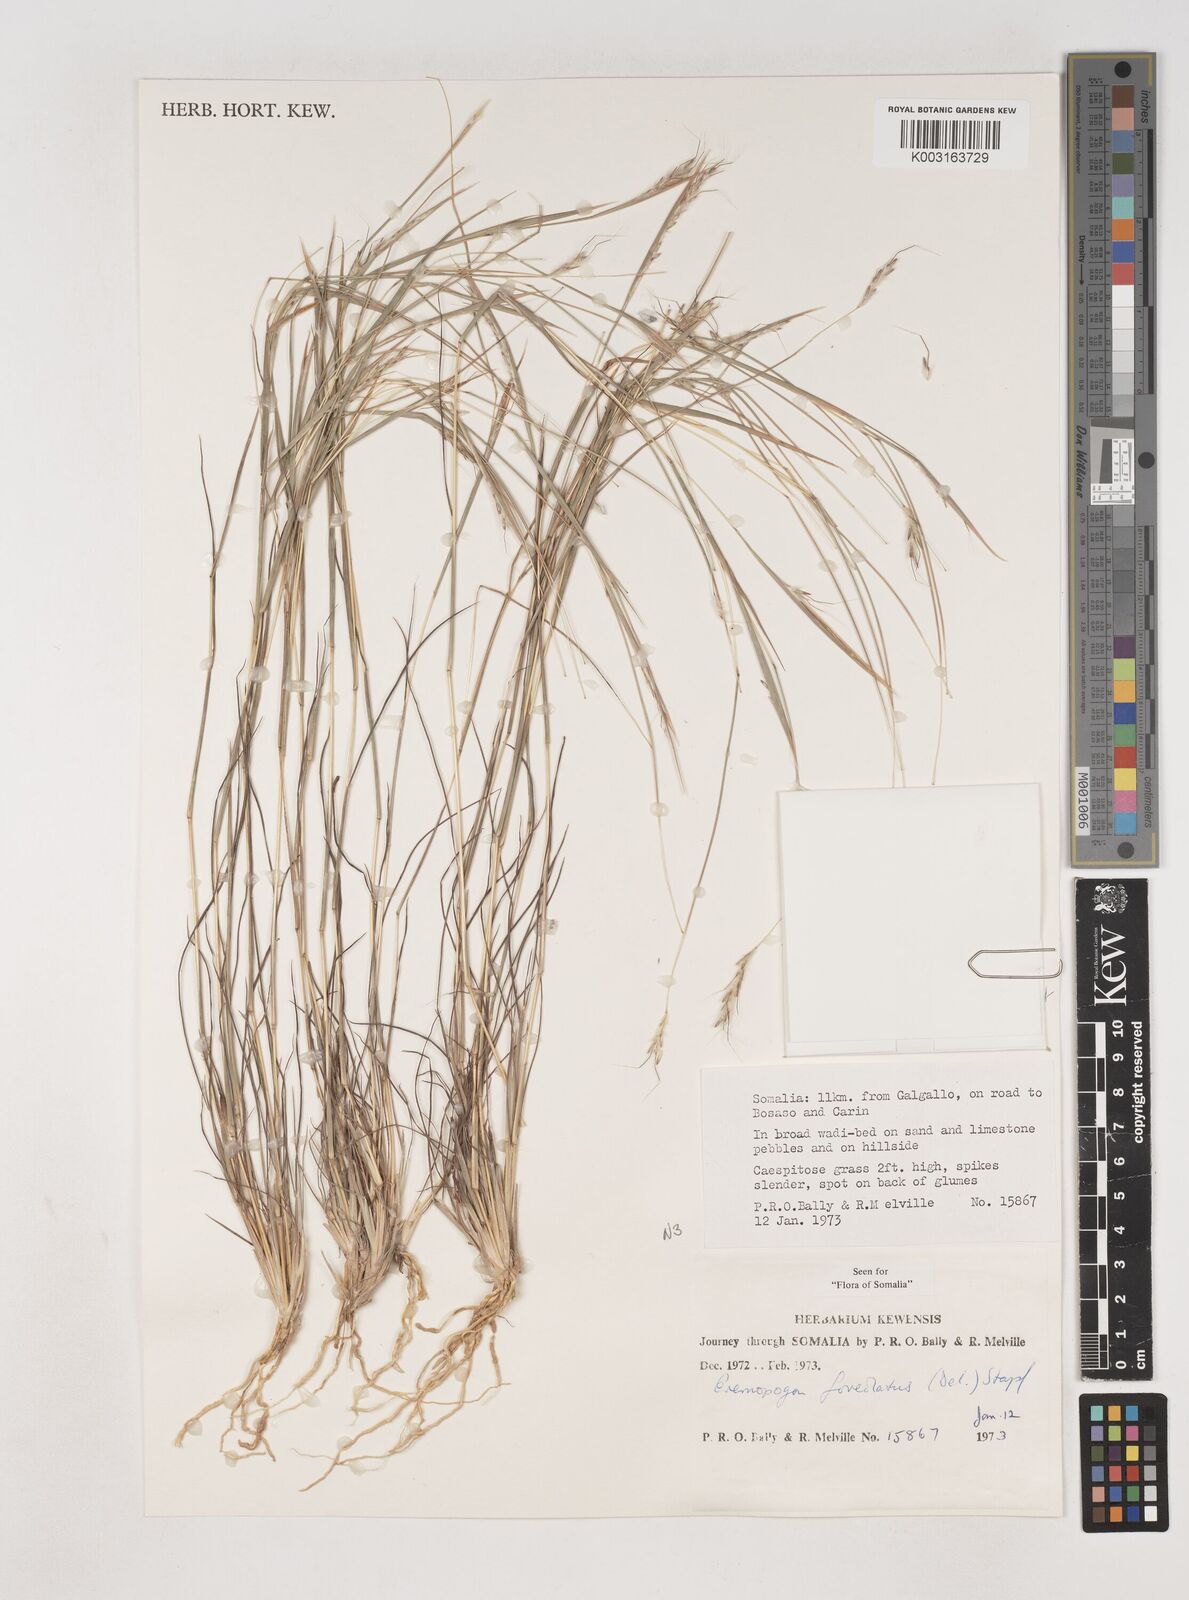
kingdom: Plantae
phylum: Tracheophyta
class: Liliopsida
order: Poales
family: Poaceae
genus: Dichanthium
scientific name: Dichanthium foveolatum
